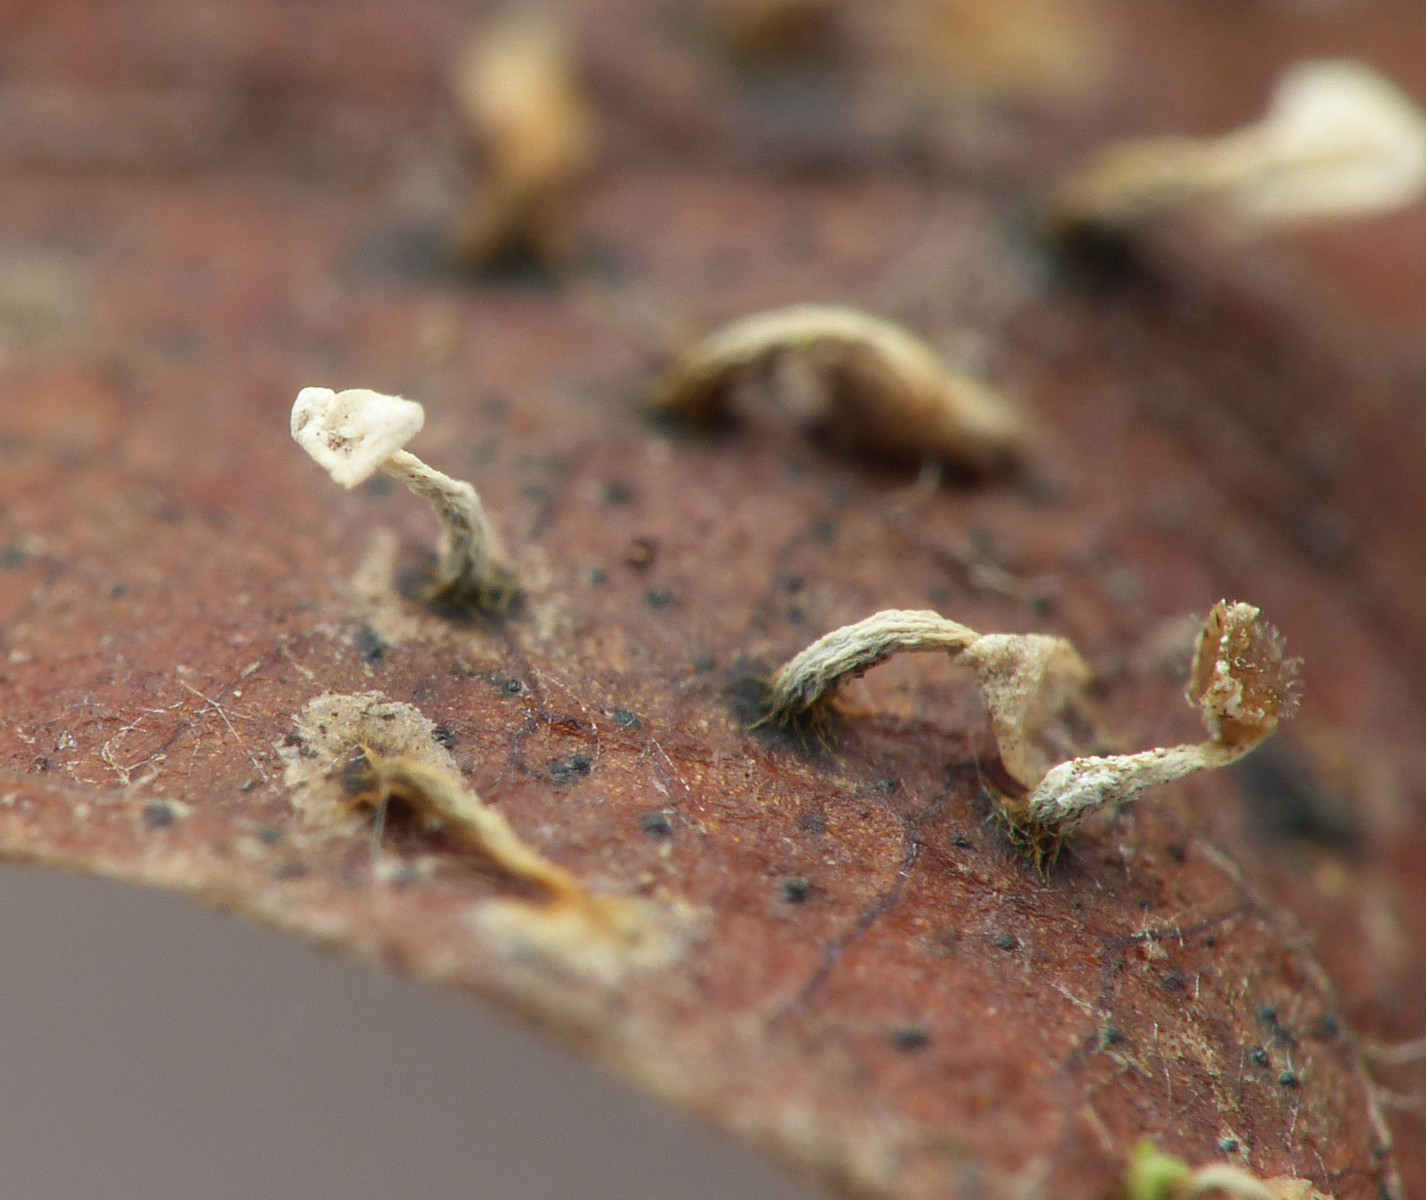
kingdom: Protozoa
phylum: Mycetozoa
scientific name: Mycetozoa
